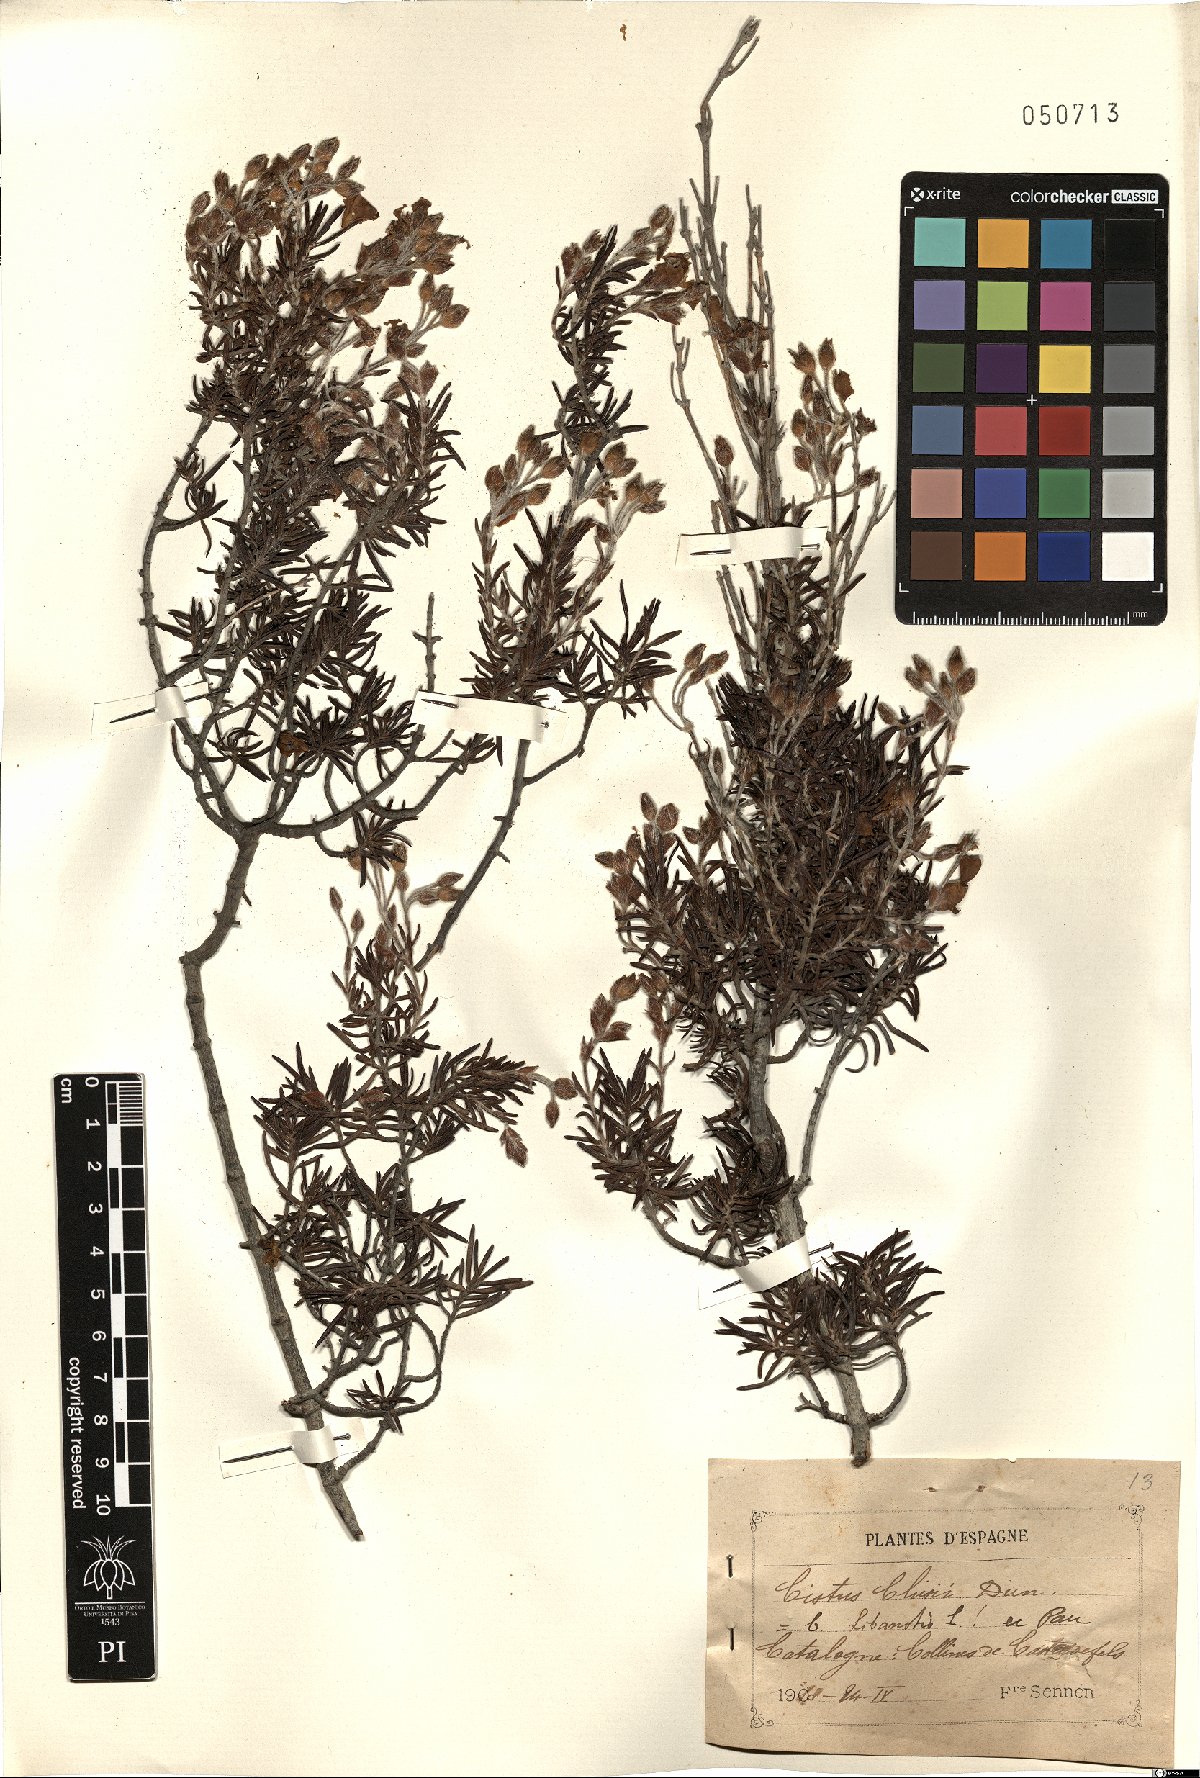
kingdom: Plantae
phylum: Tracheophyta
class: Magnoliopsida
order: Malvales
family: Cistaceae
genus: Cistus
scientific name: Cistus clusii
